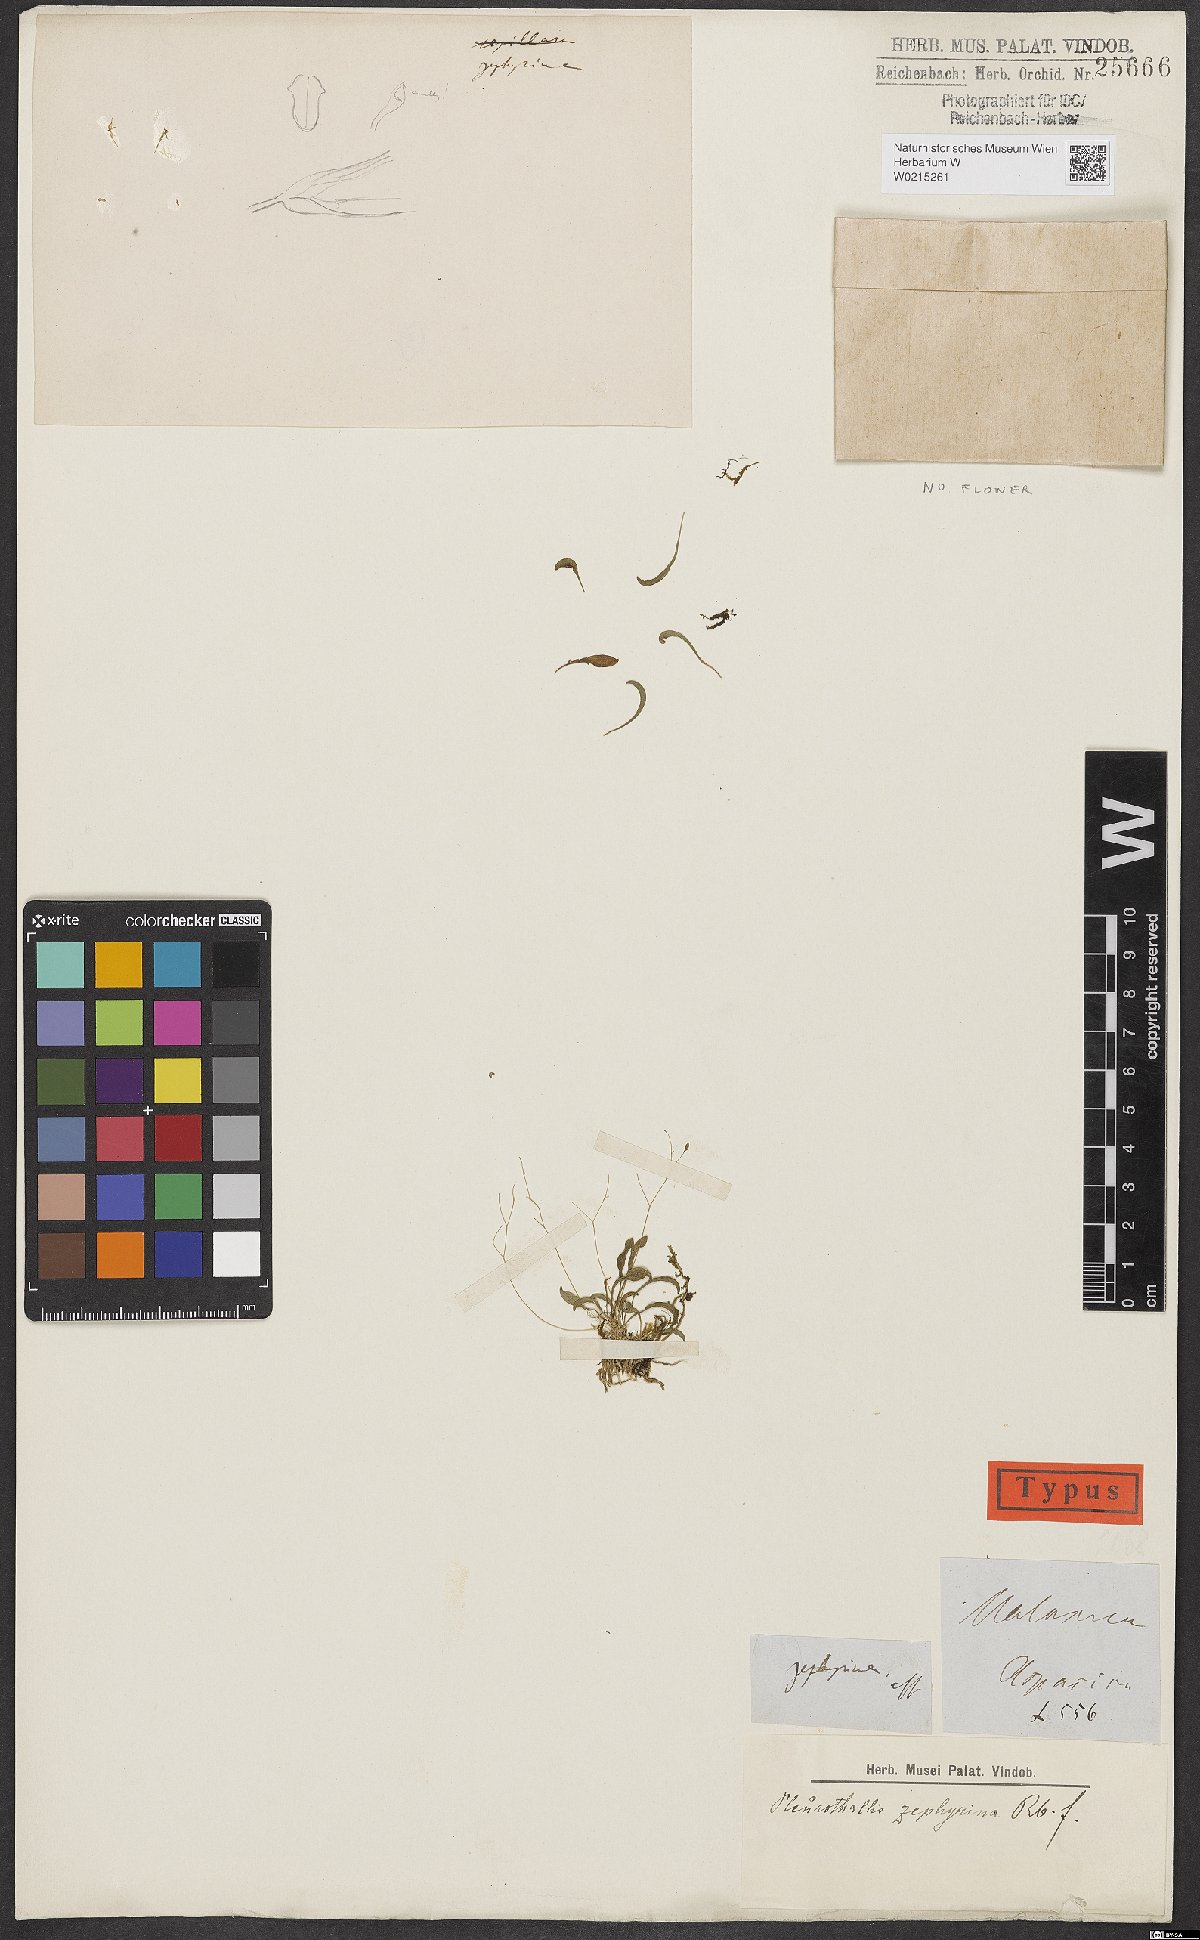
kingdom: Plantae
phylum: Tracheophyta
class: Liliopsida
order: Asparagales
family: Orchidaceae
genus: Pleurothallis
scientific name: Pleurothallis
